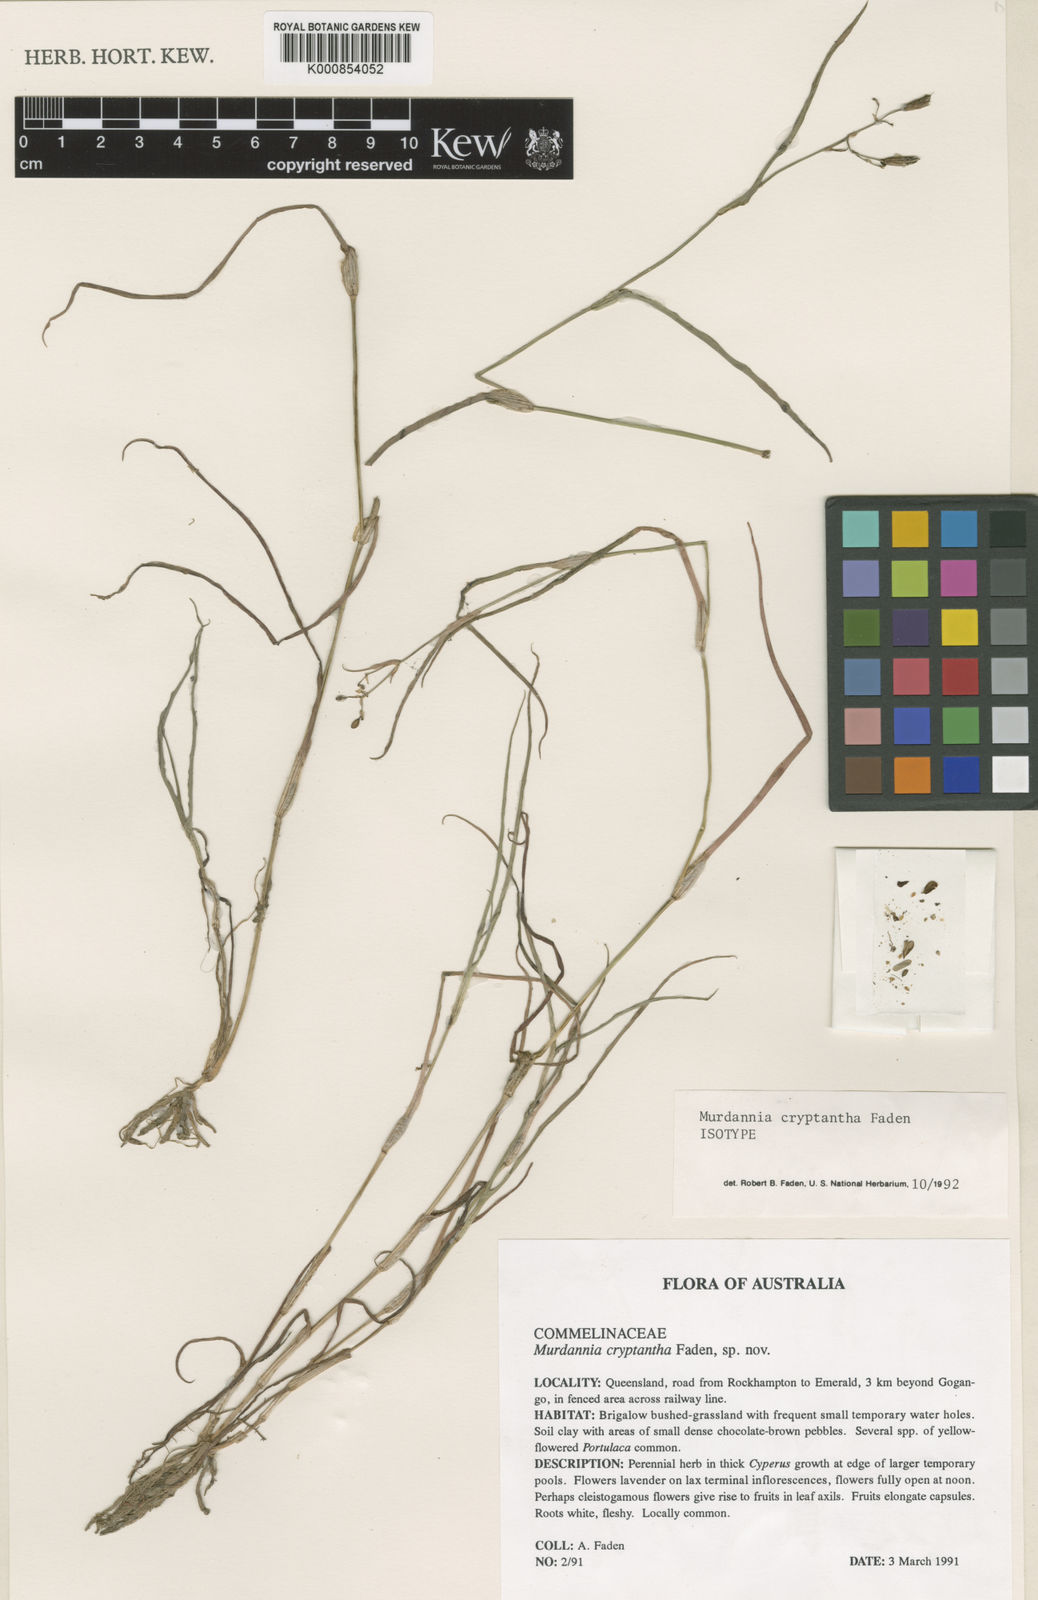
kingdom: Plantae
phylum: Tracheophyta
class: Liliopsida
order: Commelinales
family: Commelinaceae
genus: Murdannia
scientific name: Murdannia cryptantha
